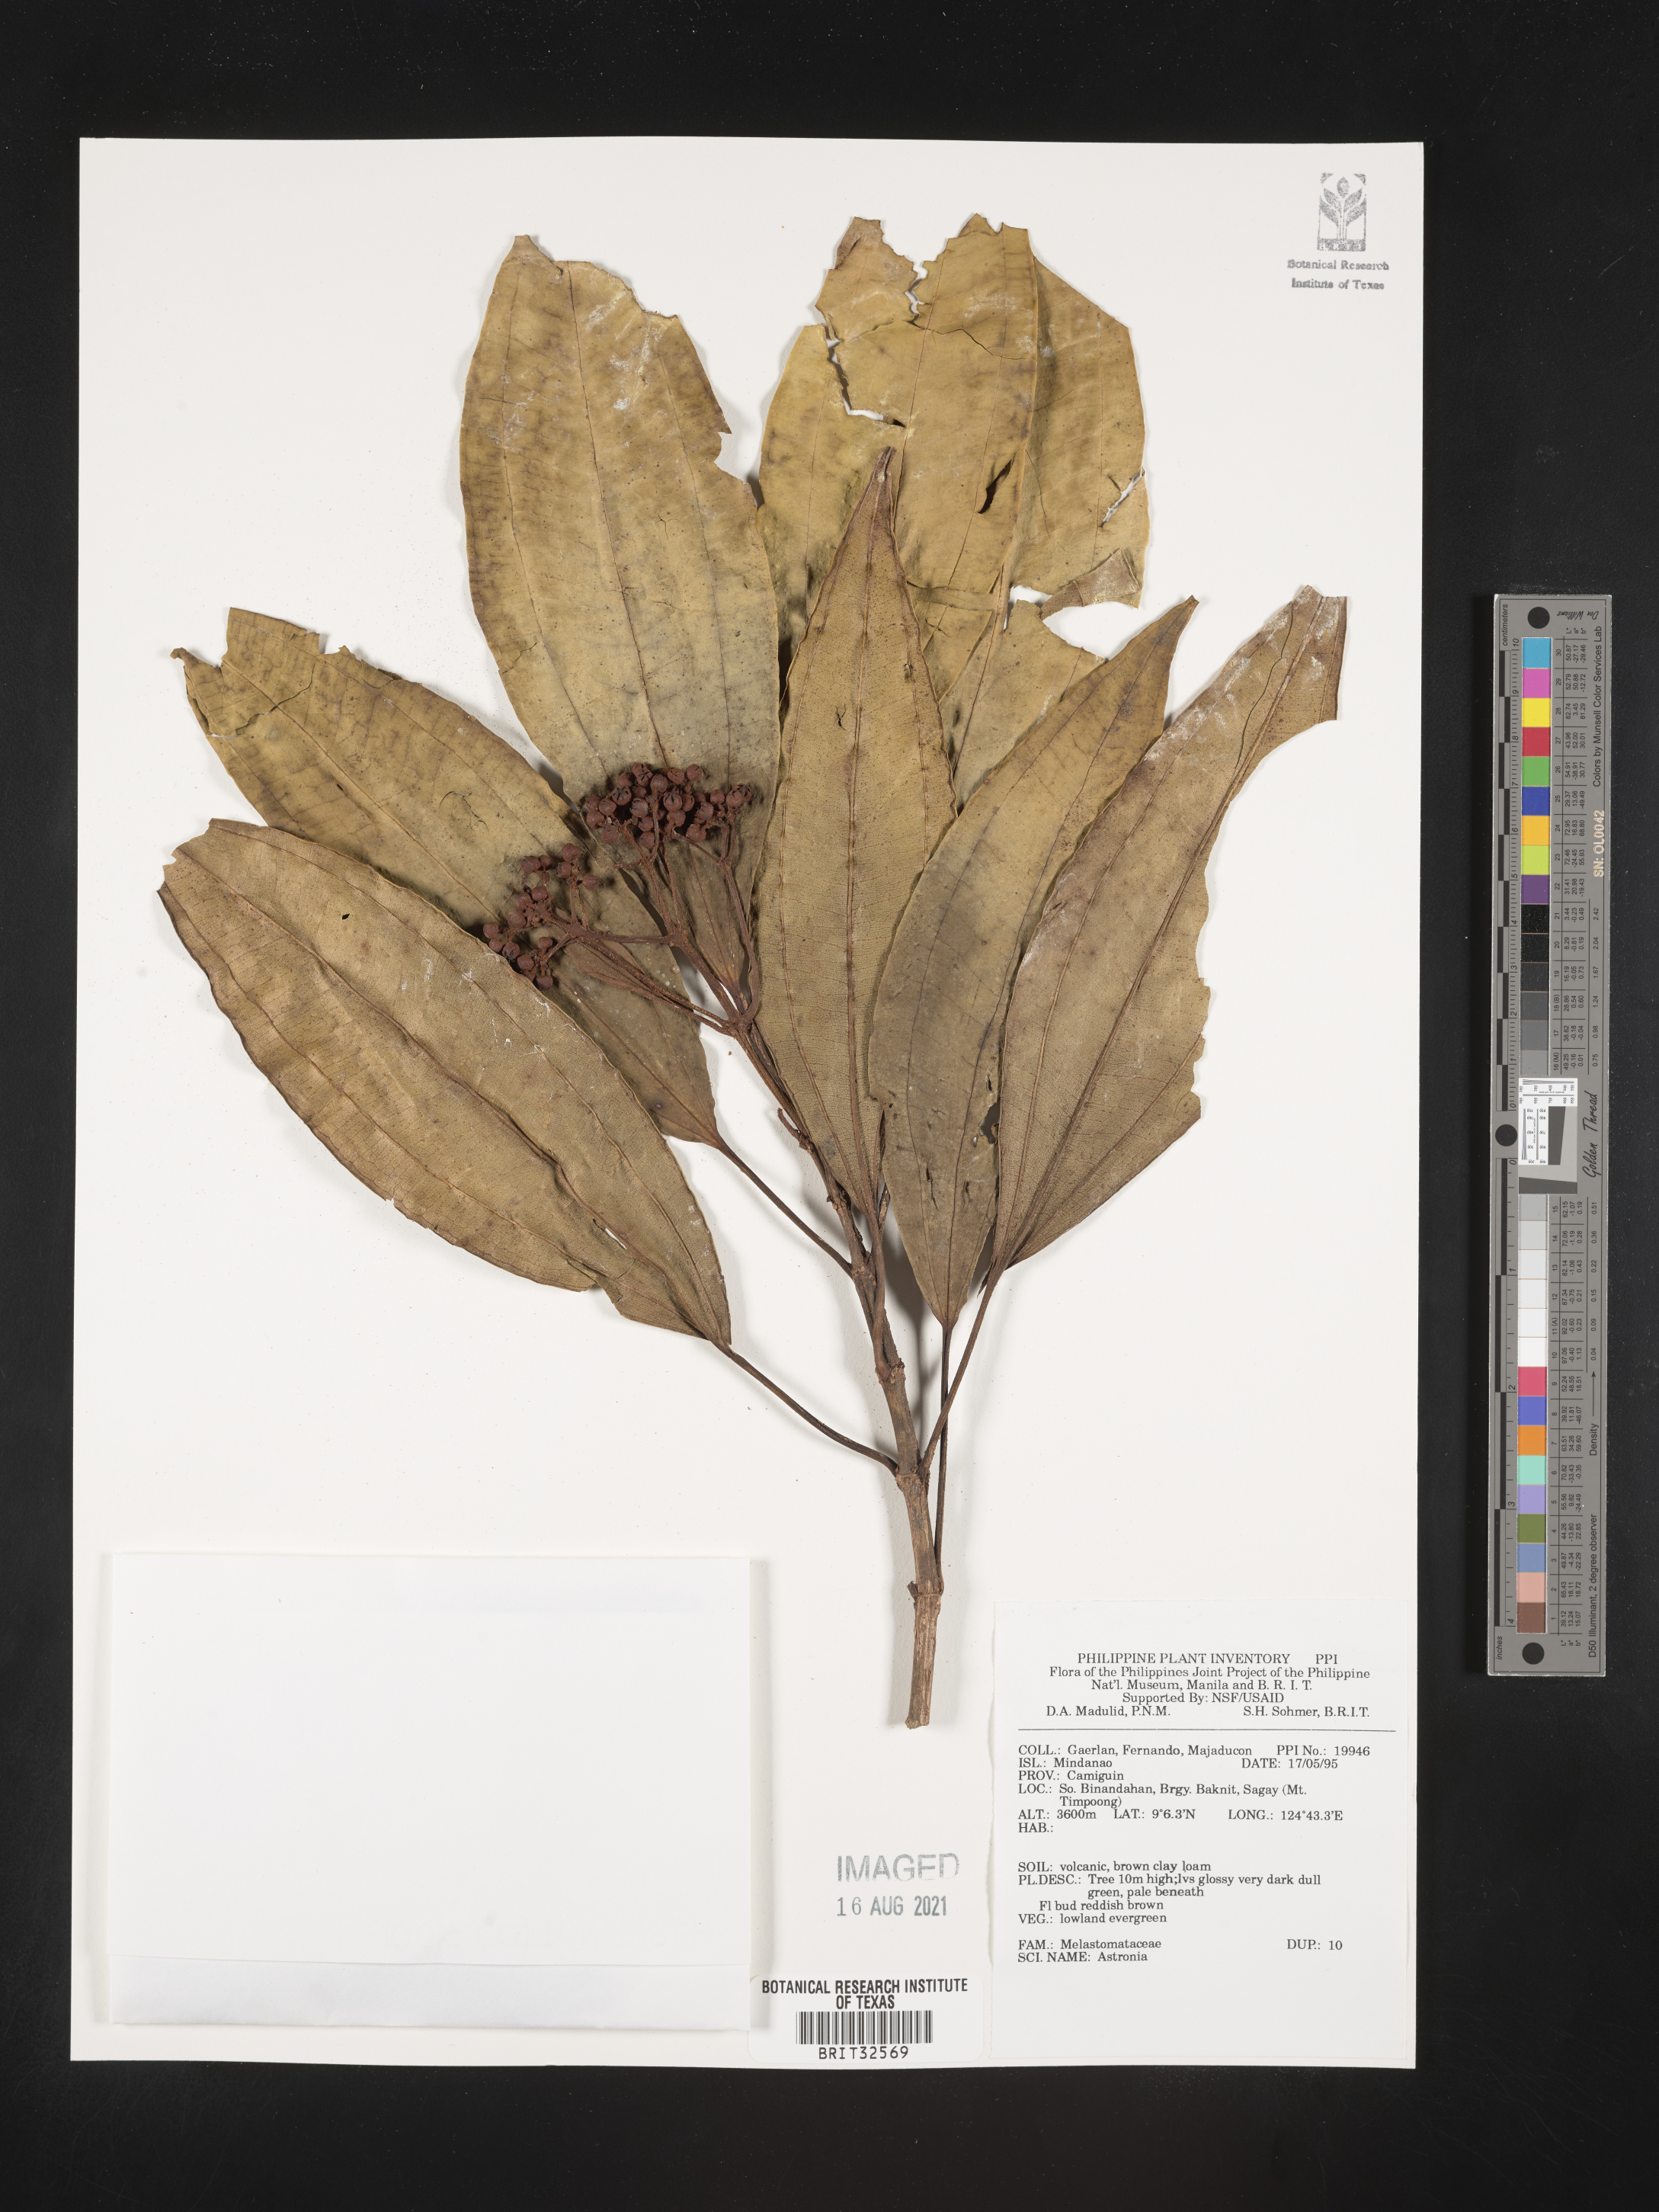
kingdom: Plantae
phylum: Tracheophyta
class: Magnoliopsida
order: Myrtales
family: Melastomataceae
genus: Astronia
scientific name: Astronia
